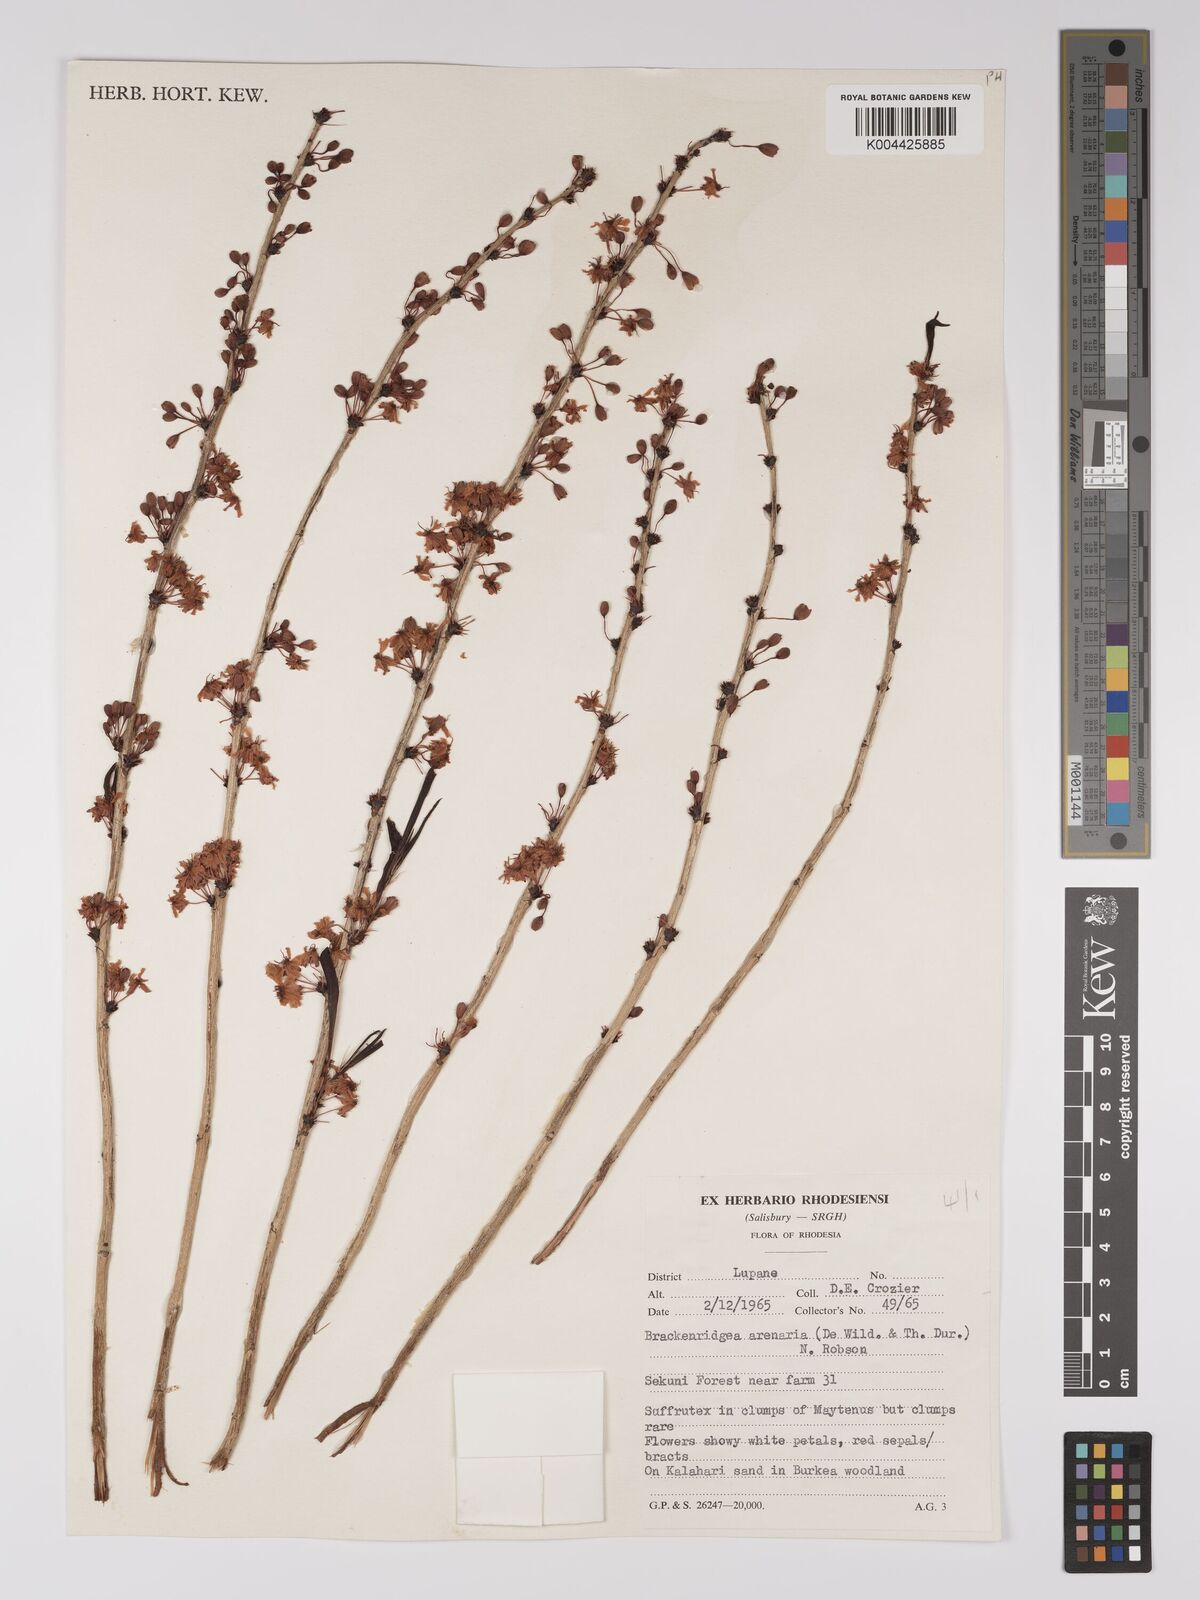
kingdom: Plantae
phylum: Tracheophyta
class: Magnoliopsida
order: Malpighiales
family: Ochnaceae
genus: Ochna
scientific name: Ochna arenaria
